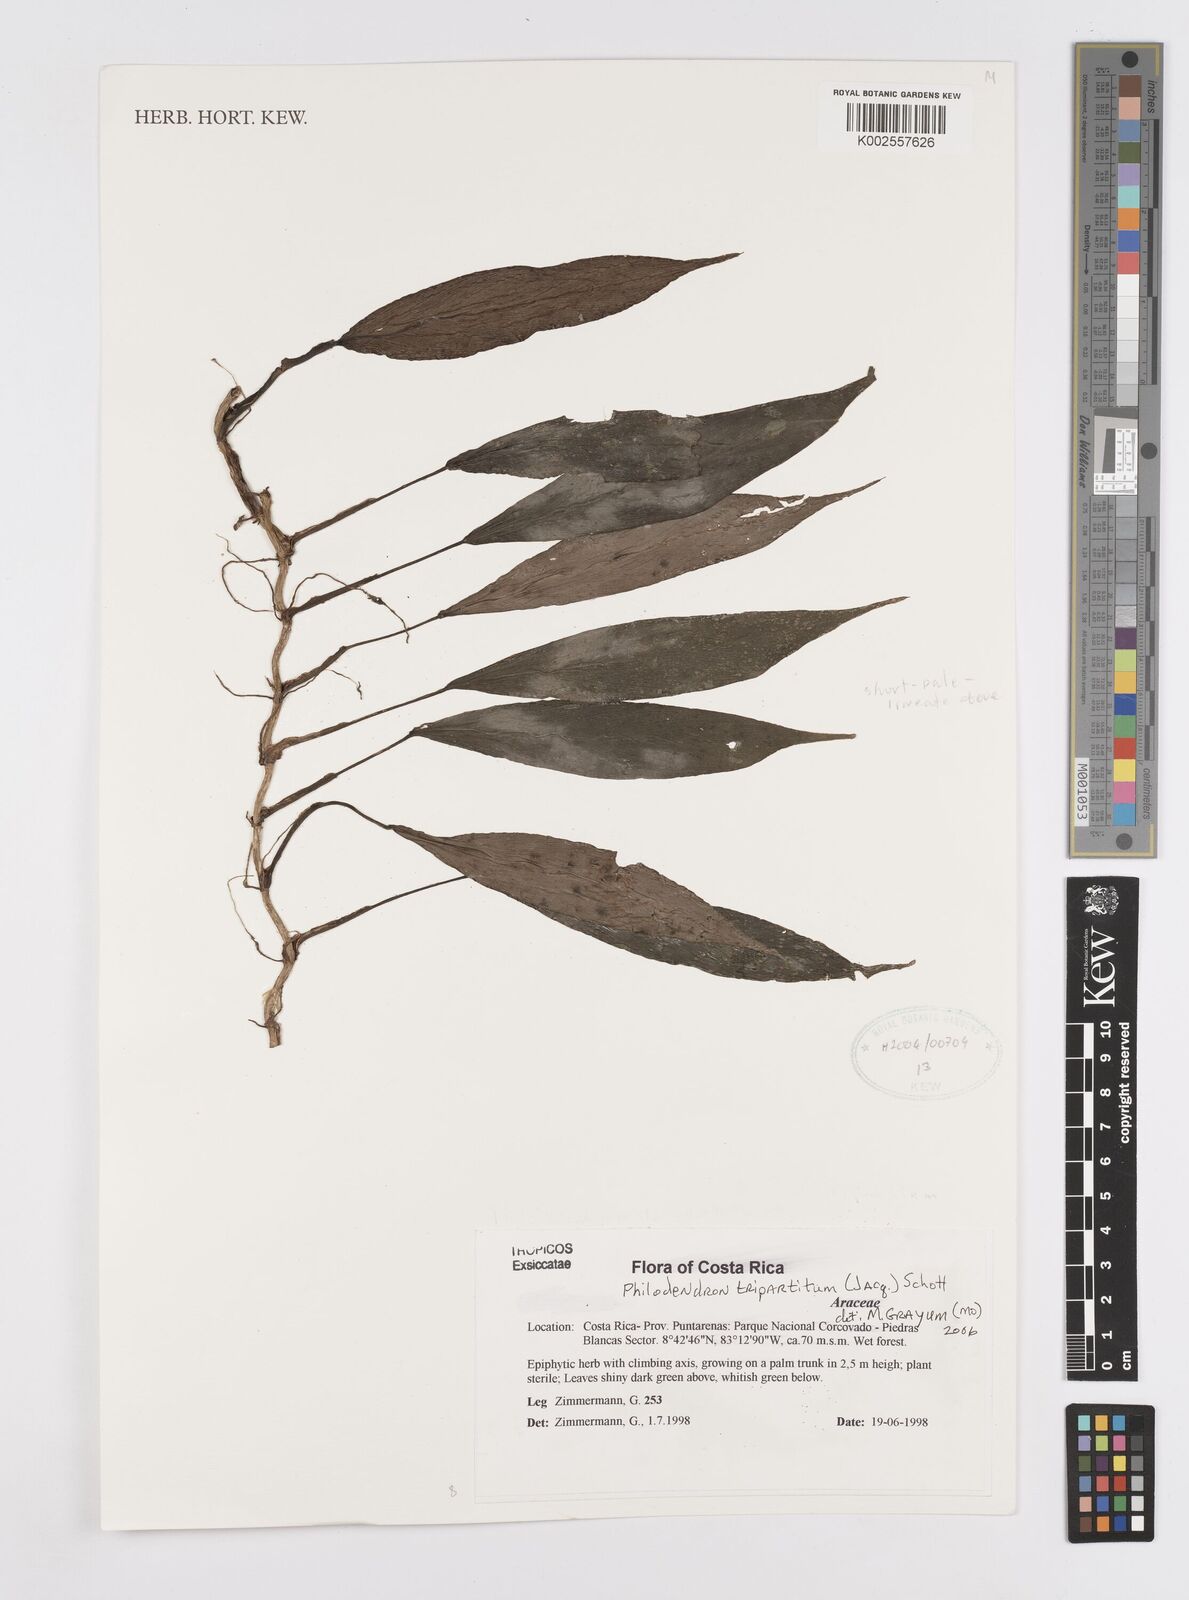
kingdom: Plantae
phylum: Tracheophyta
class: Liliopsida
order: Alismatales
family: Araceae
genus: Philodendron
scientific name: Philodendron tripartitum
